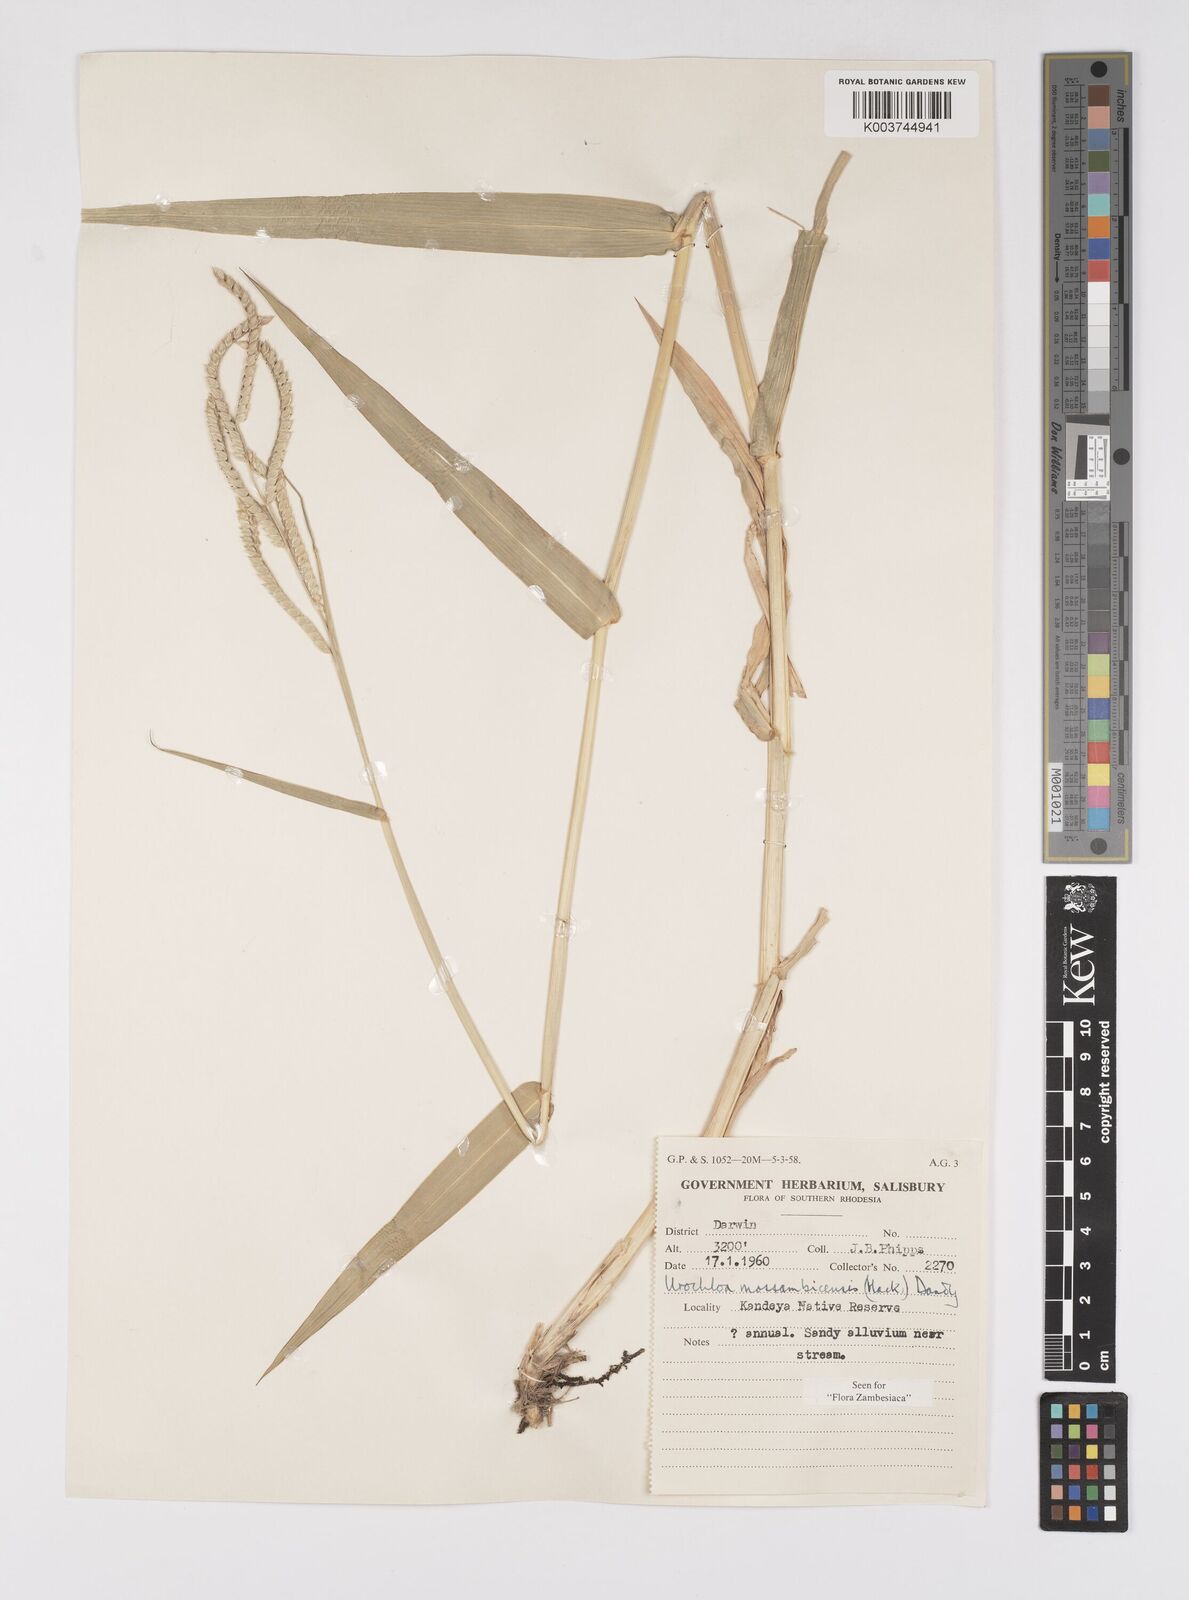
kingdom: Plantae
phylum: Tracheophyta
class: Liliopsida
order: Poales
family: Poaceae
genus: Urochloa
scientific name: Urochloa trichopus
